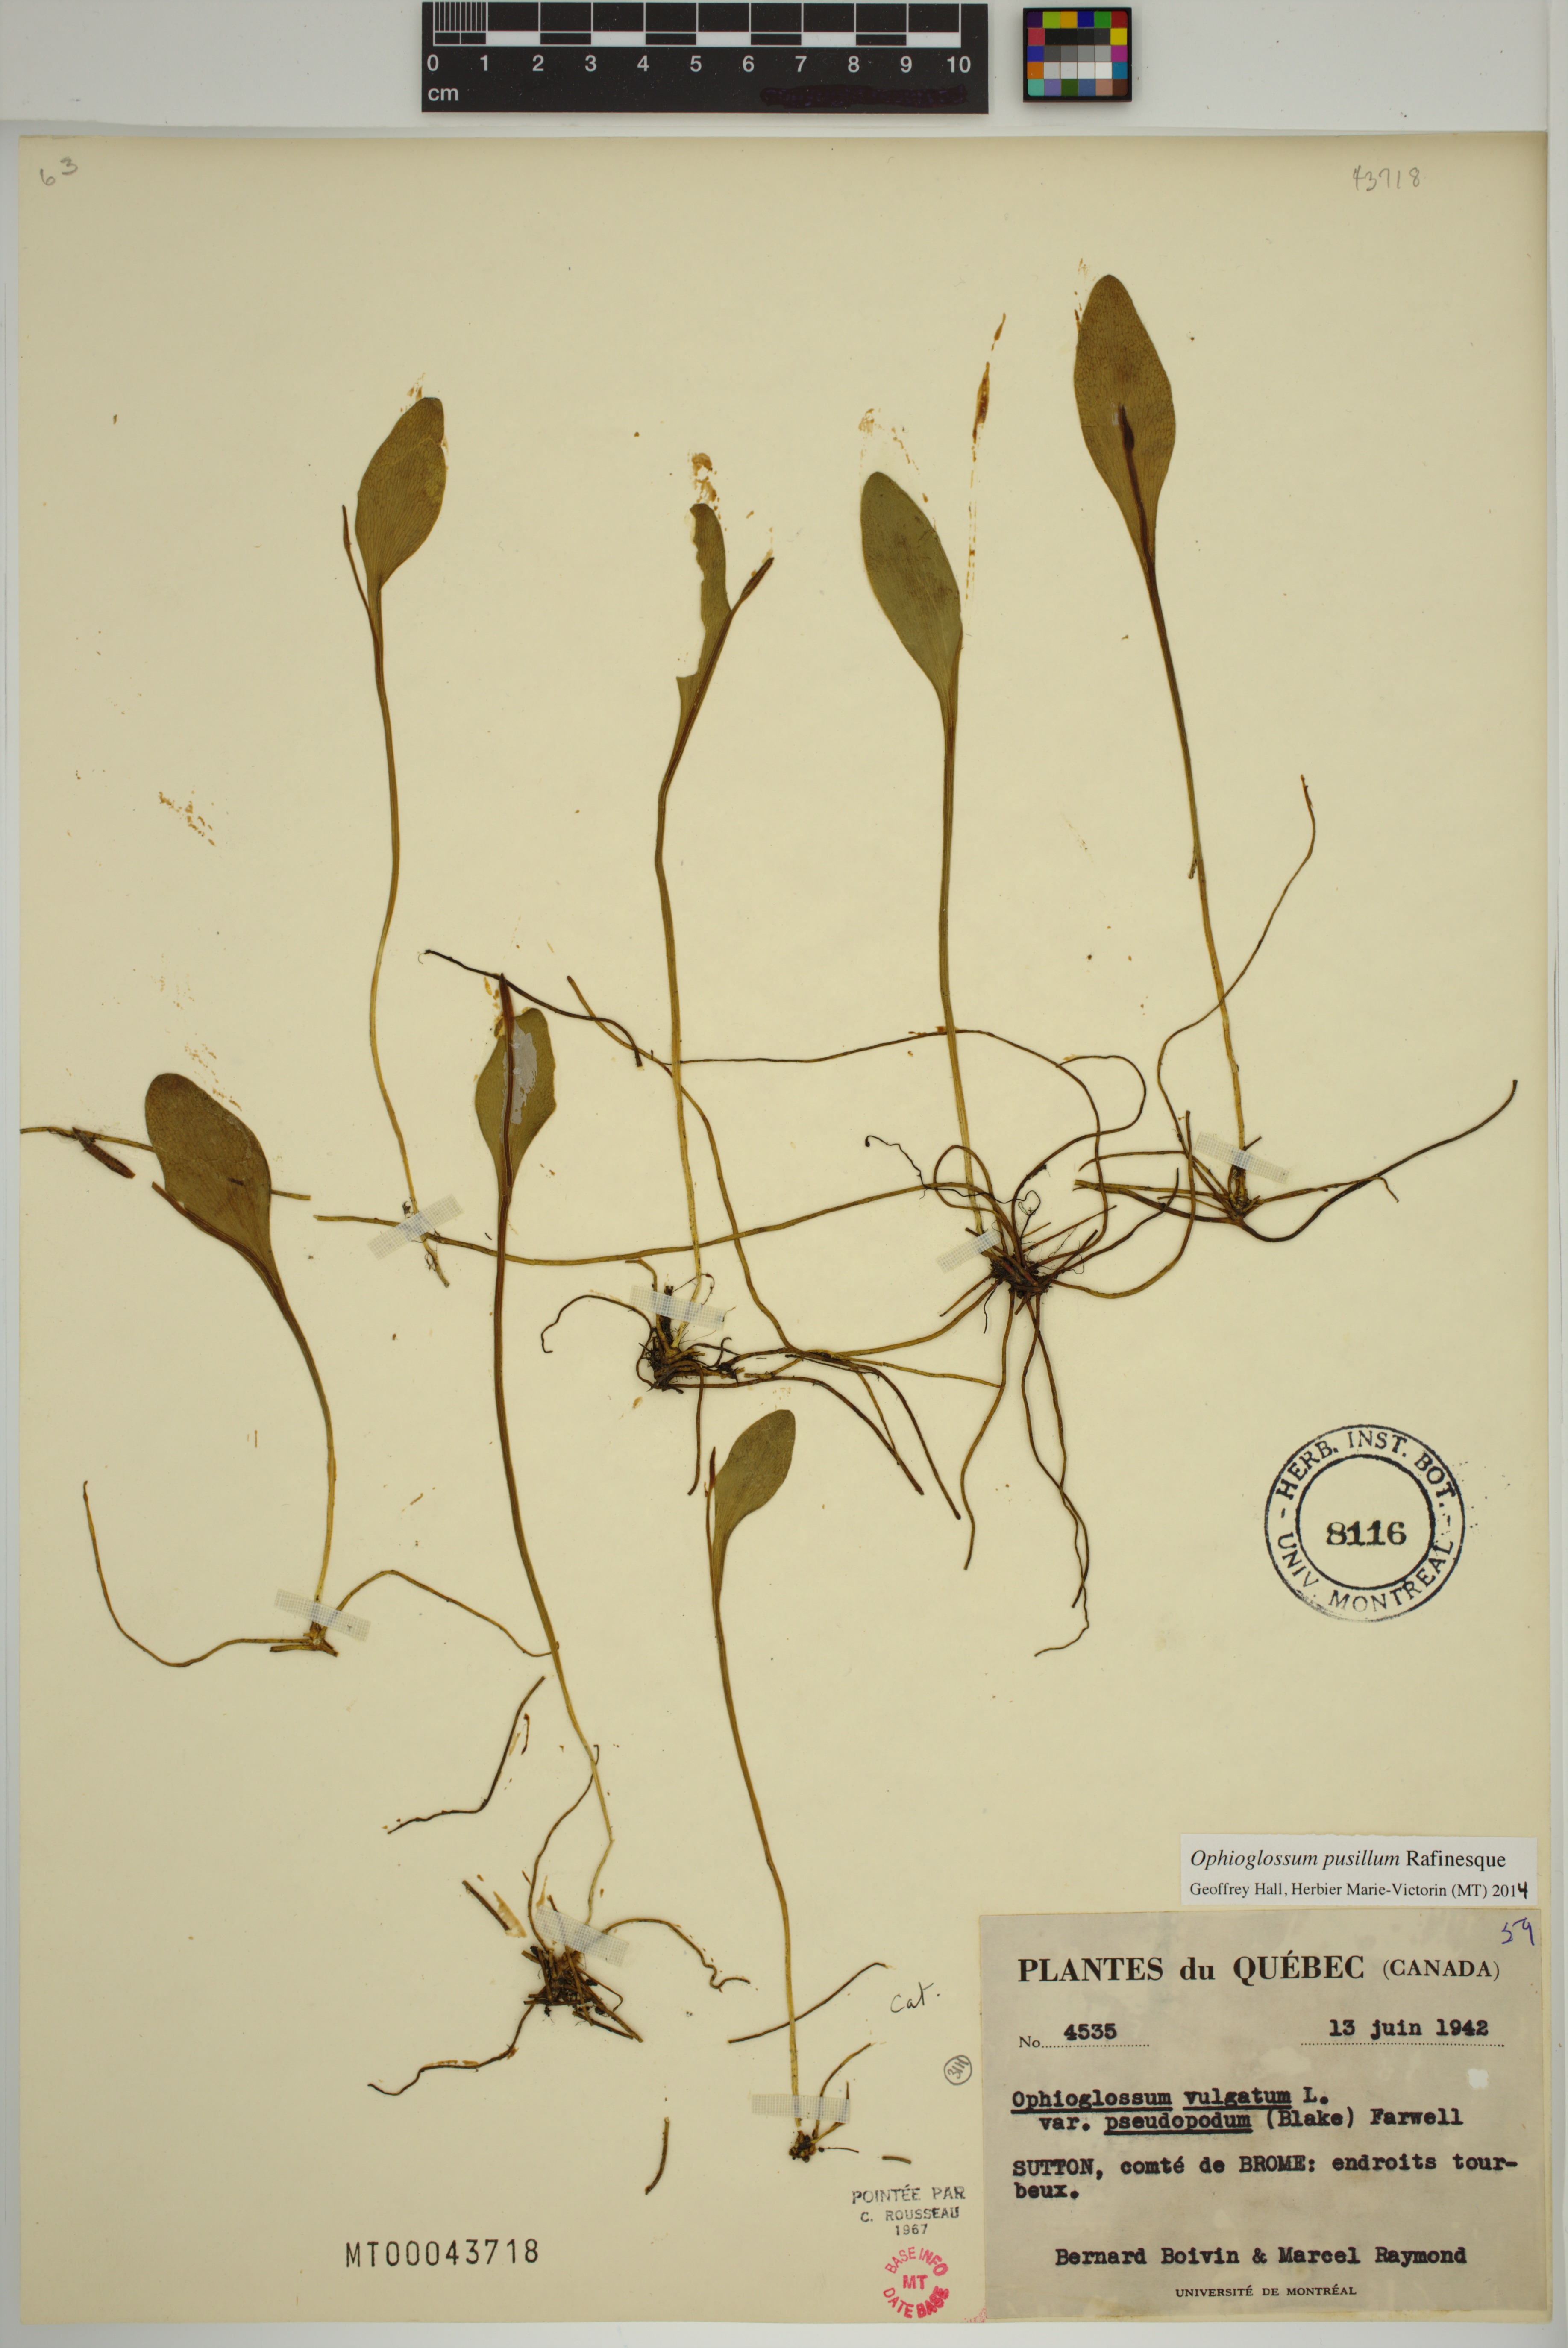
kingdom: Plantae
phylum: Tracheophyta
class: Polypodiopsida
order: Ophioglossales
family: Ophioglossaceae
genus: Ophioglossum
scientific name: Ophioglossum pusillum
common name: Northern adder's-tongue
